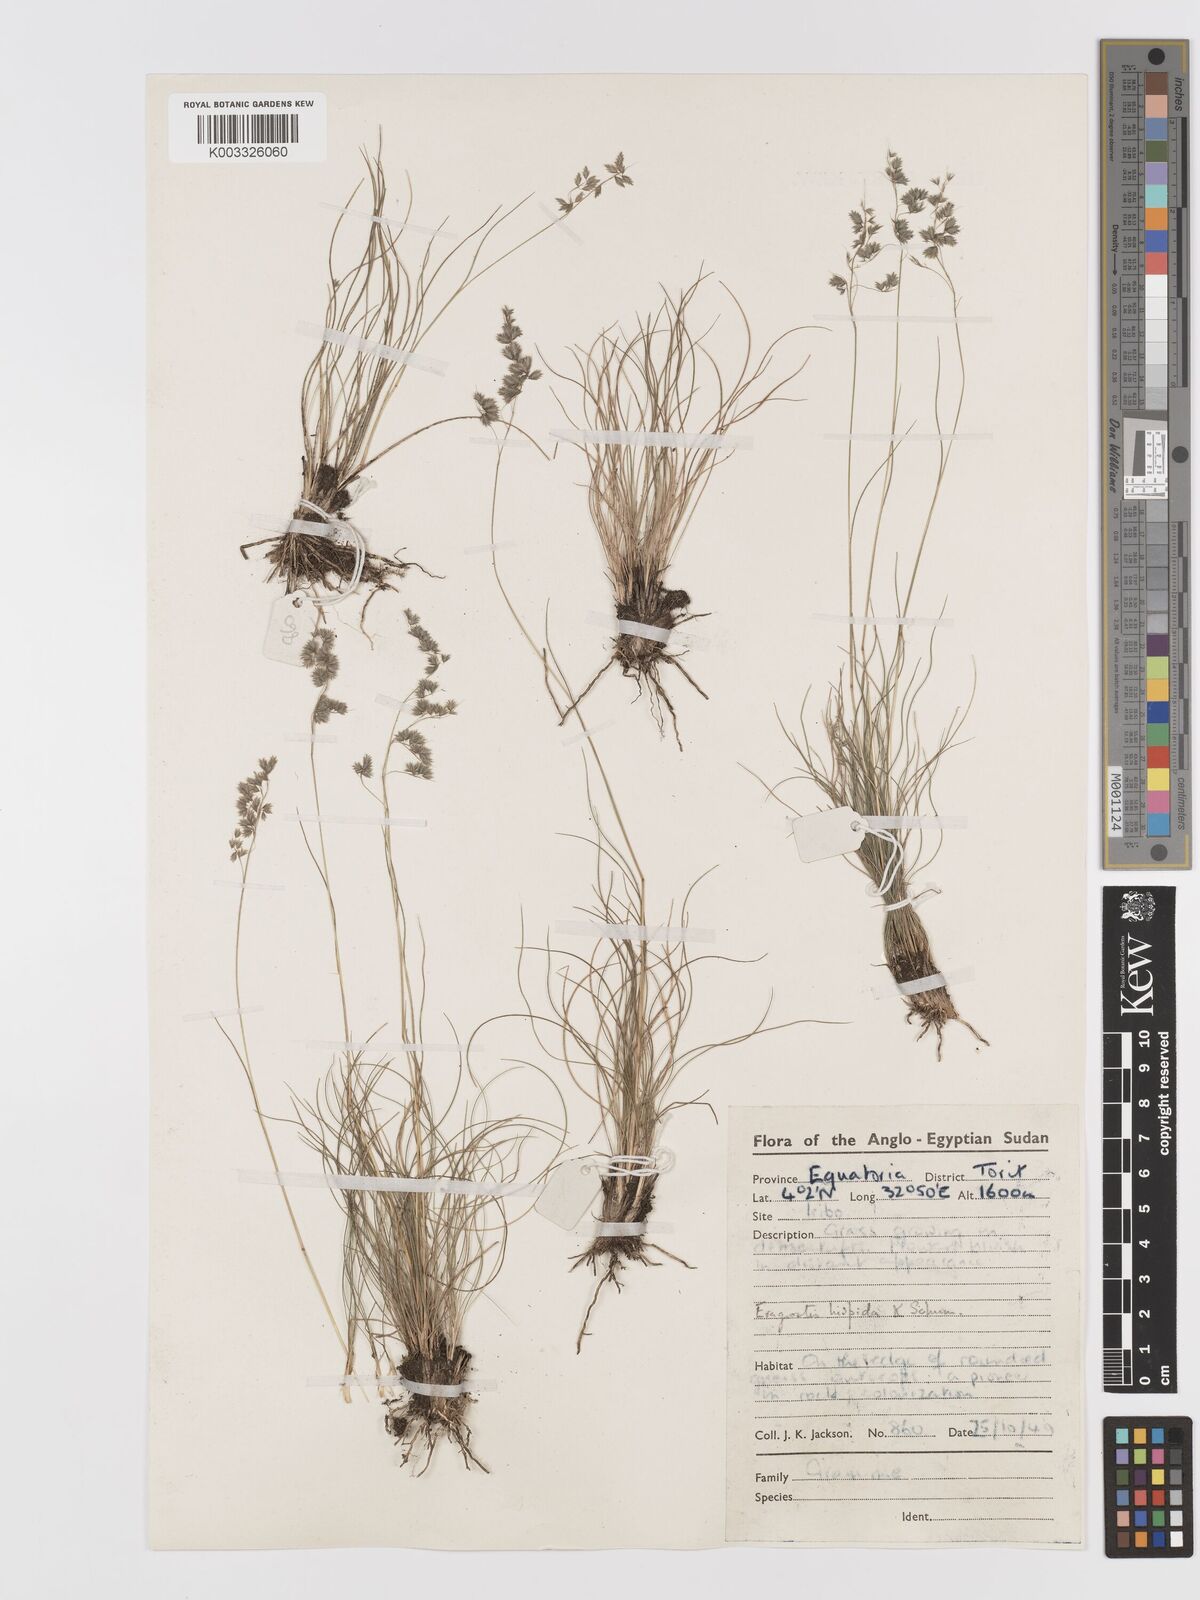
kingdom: Plantae
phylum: Tracheophyta
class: Liliopsida
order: Poales
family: Poaceae
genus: Eragrostis
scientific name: Eragrostis hispida
